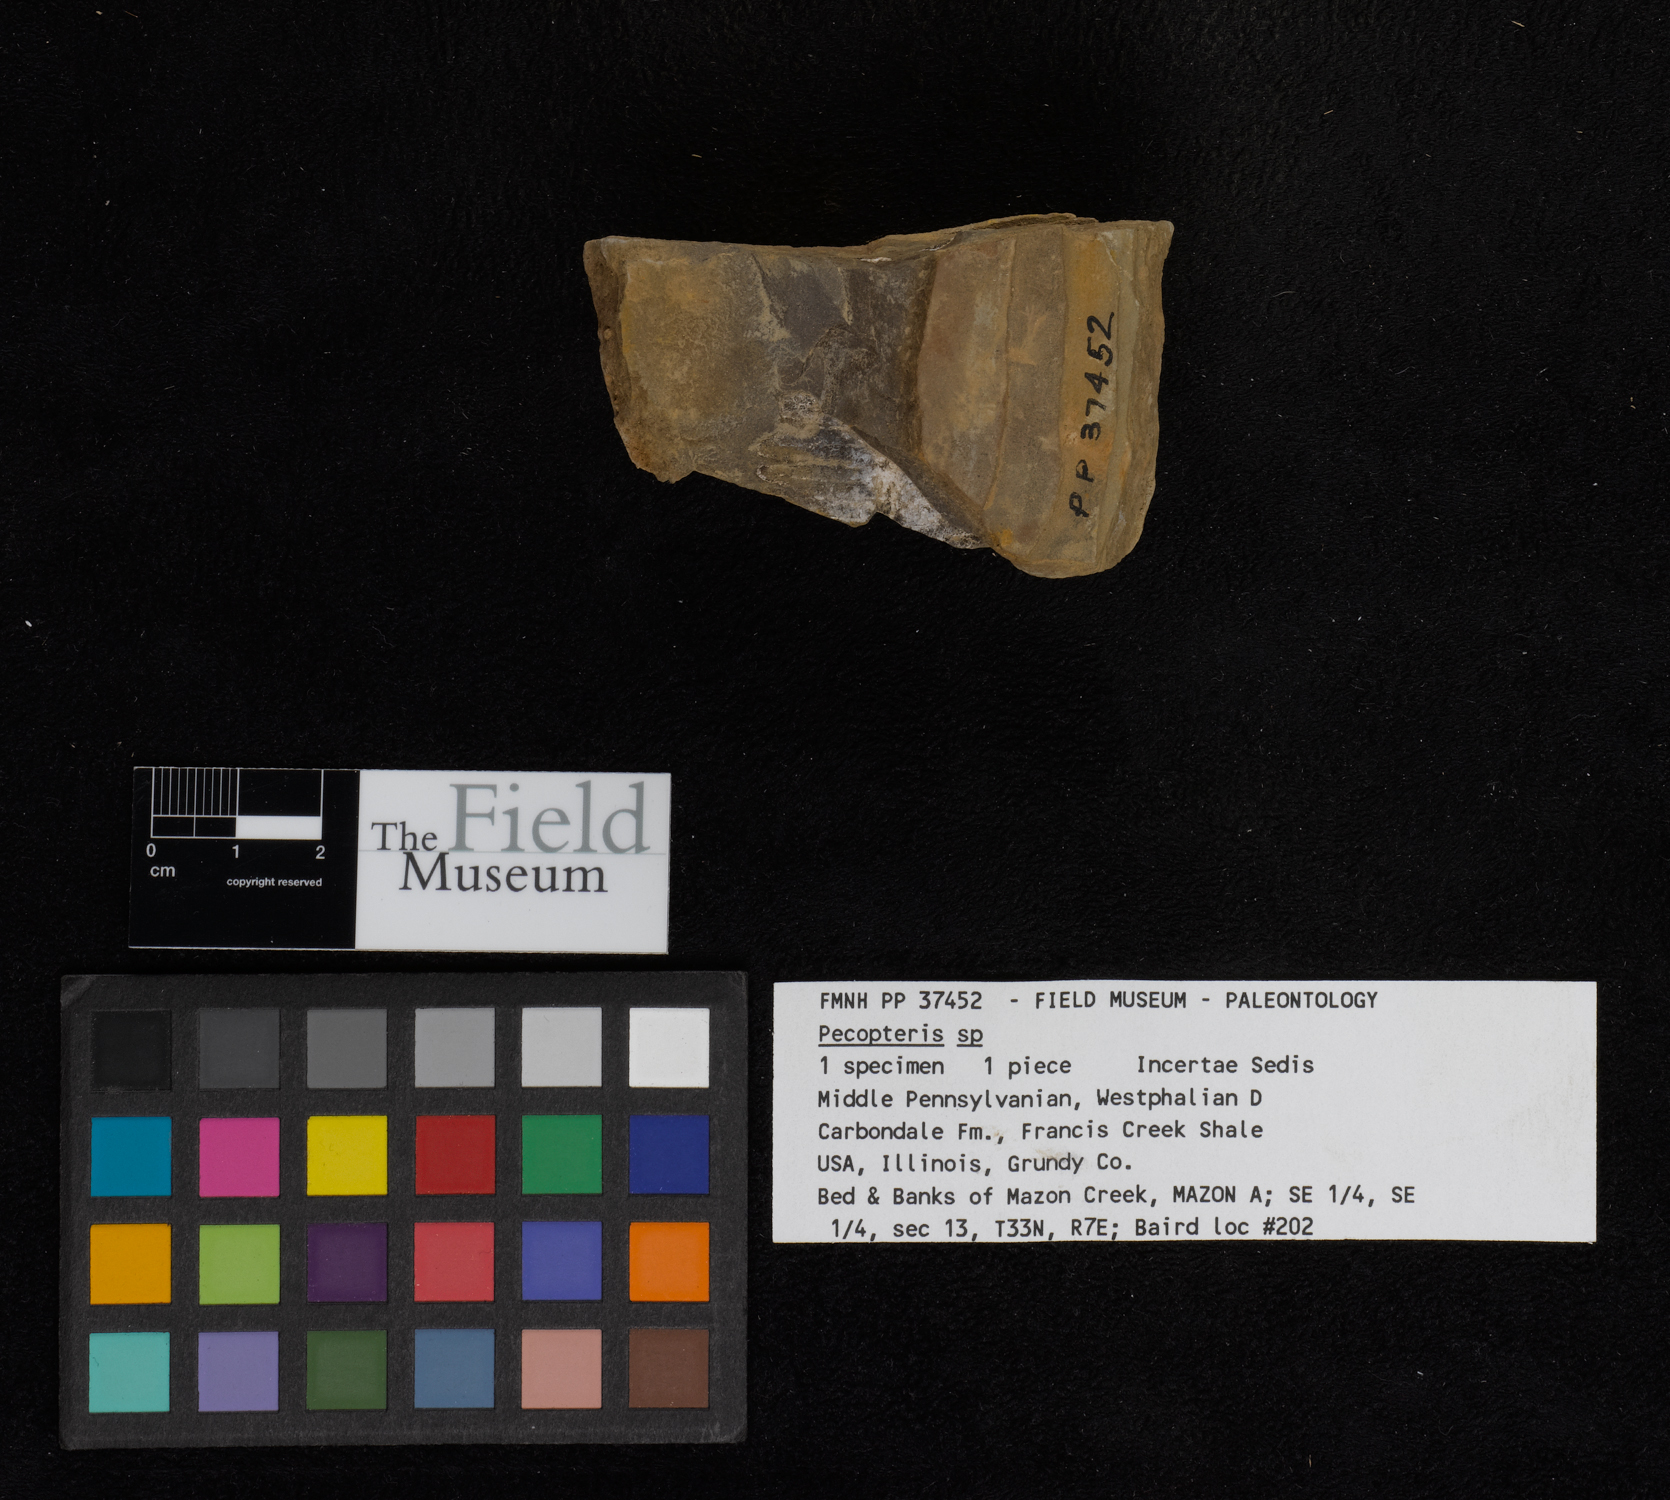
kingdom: Plantae
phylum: Tracheophyta
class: Polypodiopsida
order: Marattiales
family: Asterothecaceae
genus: Pecopteris
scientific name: Pecopteris
